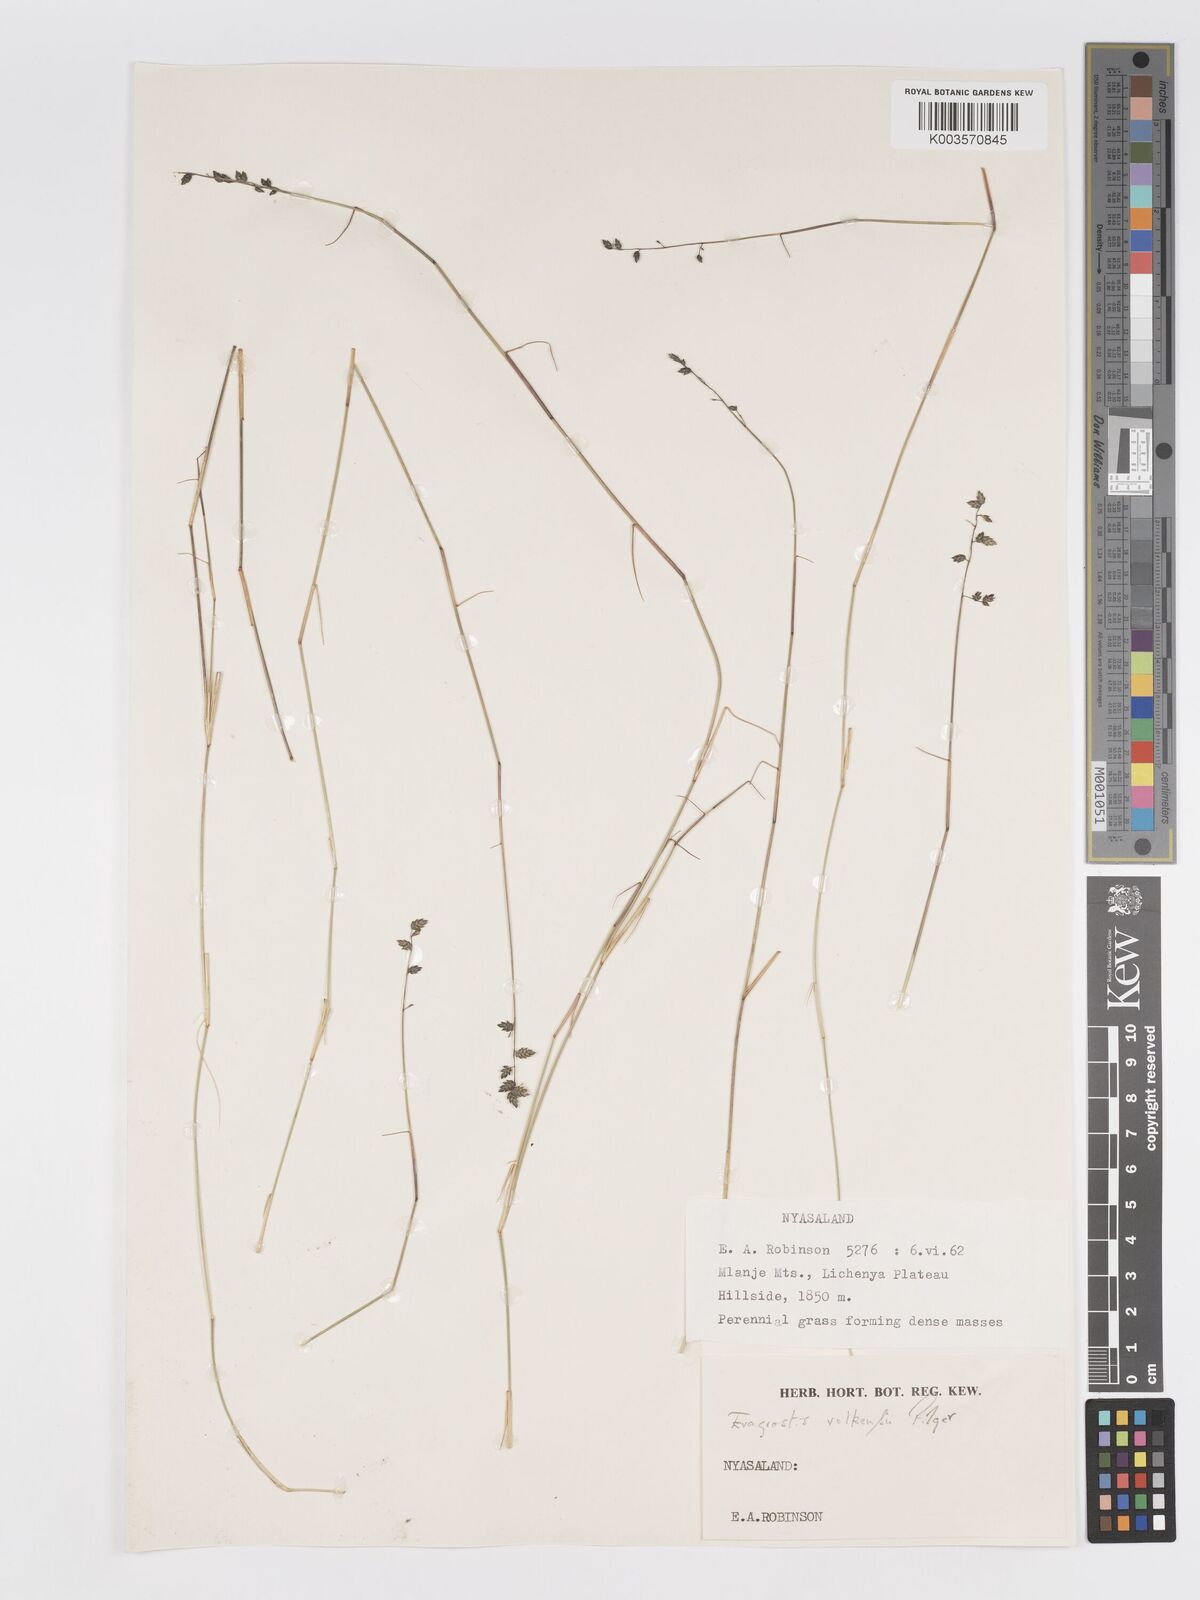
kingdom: Plantae
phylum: Tracheophyta
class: Liliopsida
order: Poales
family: Poaceae
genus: Eragrostis
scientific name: Eragrostis volkensii
